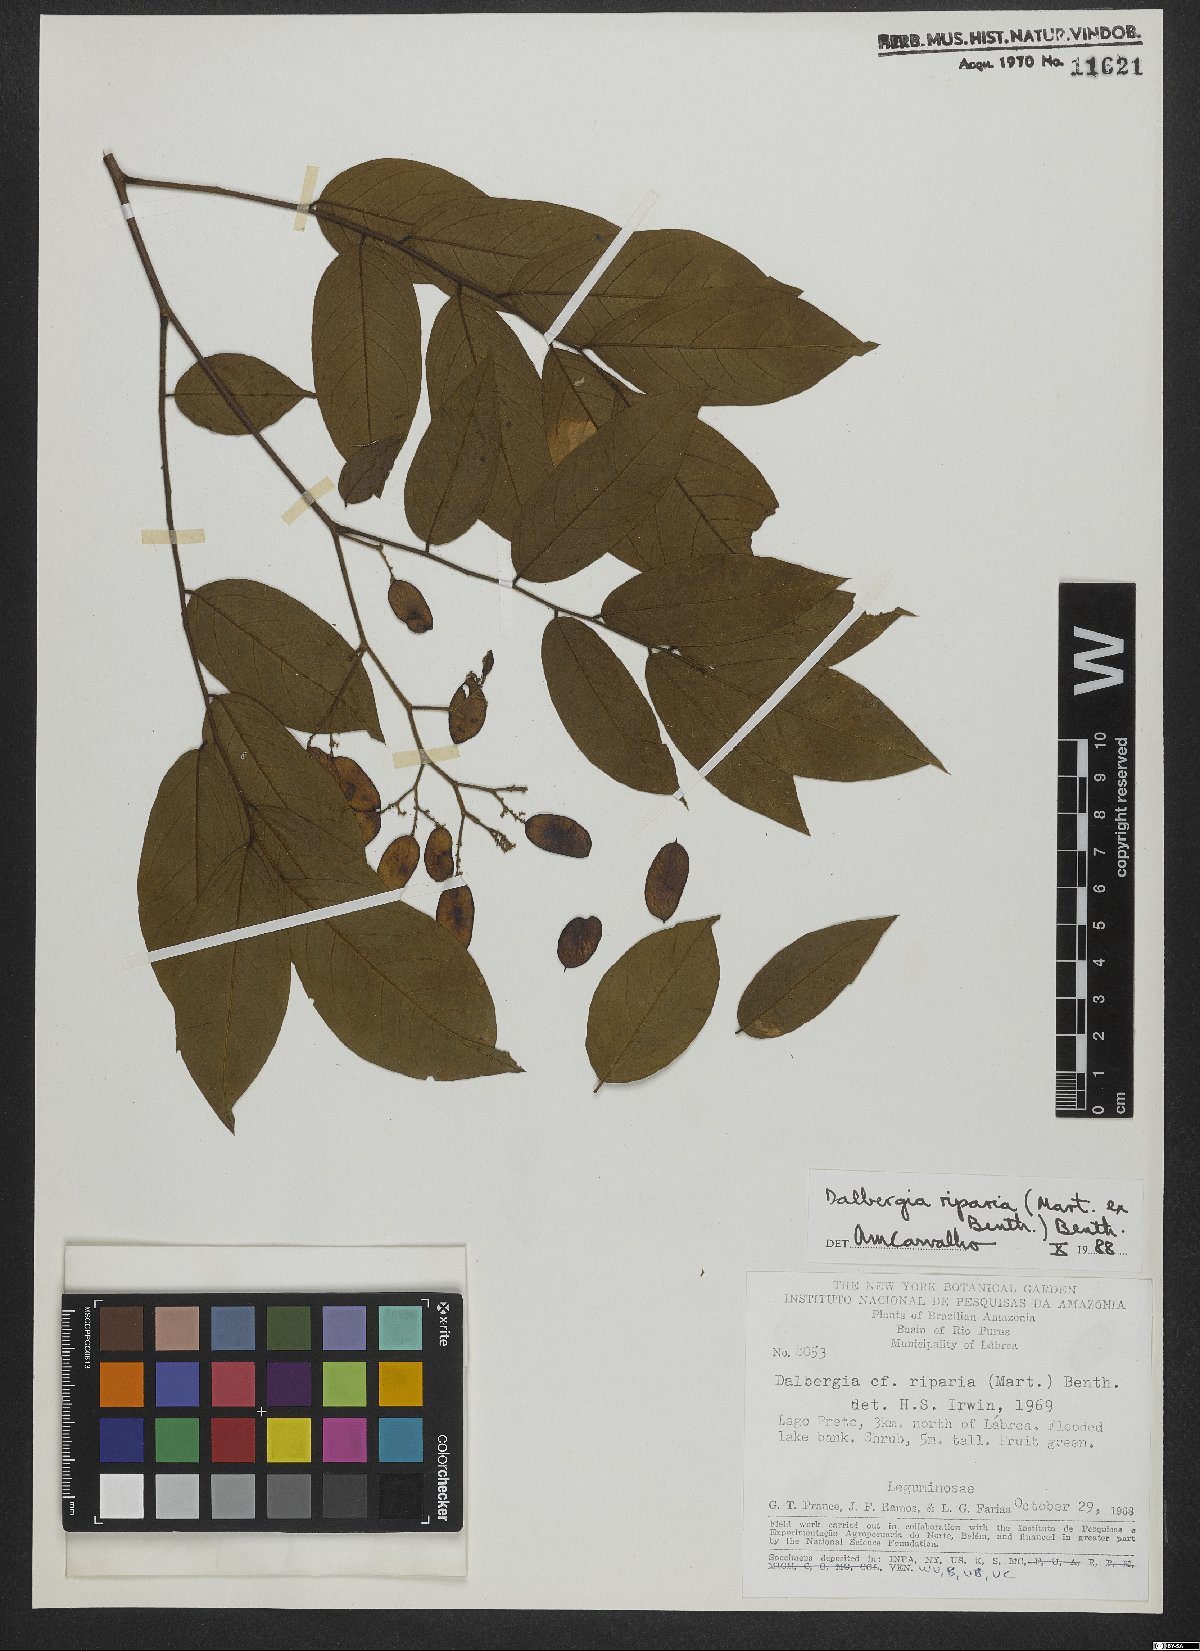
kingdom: Plantae
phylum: Tracheophyta
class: Magnoliopsida
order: Fabales
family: Fabaceae
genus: Dalbergia
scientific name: Dalbergia riparia
